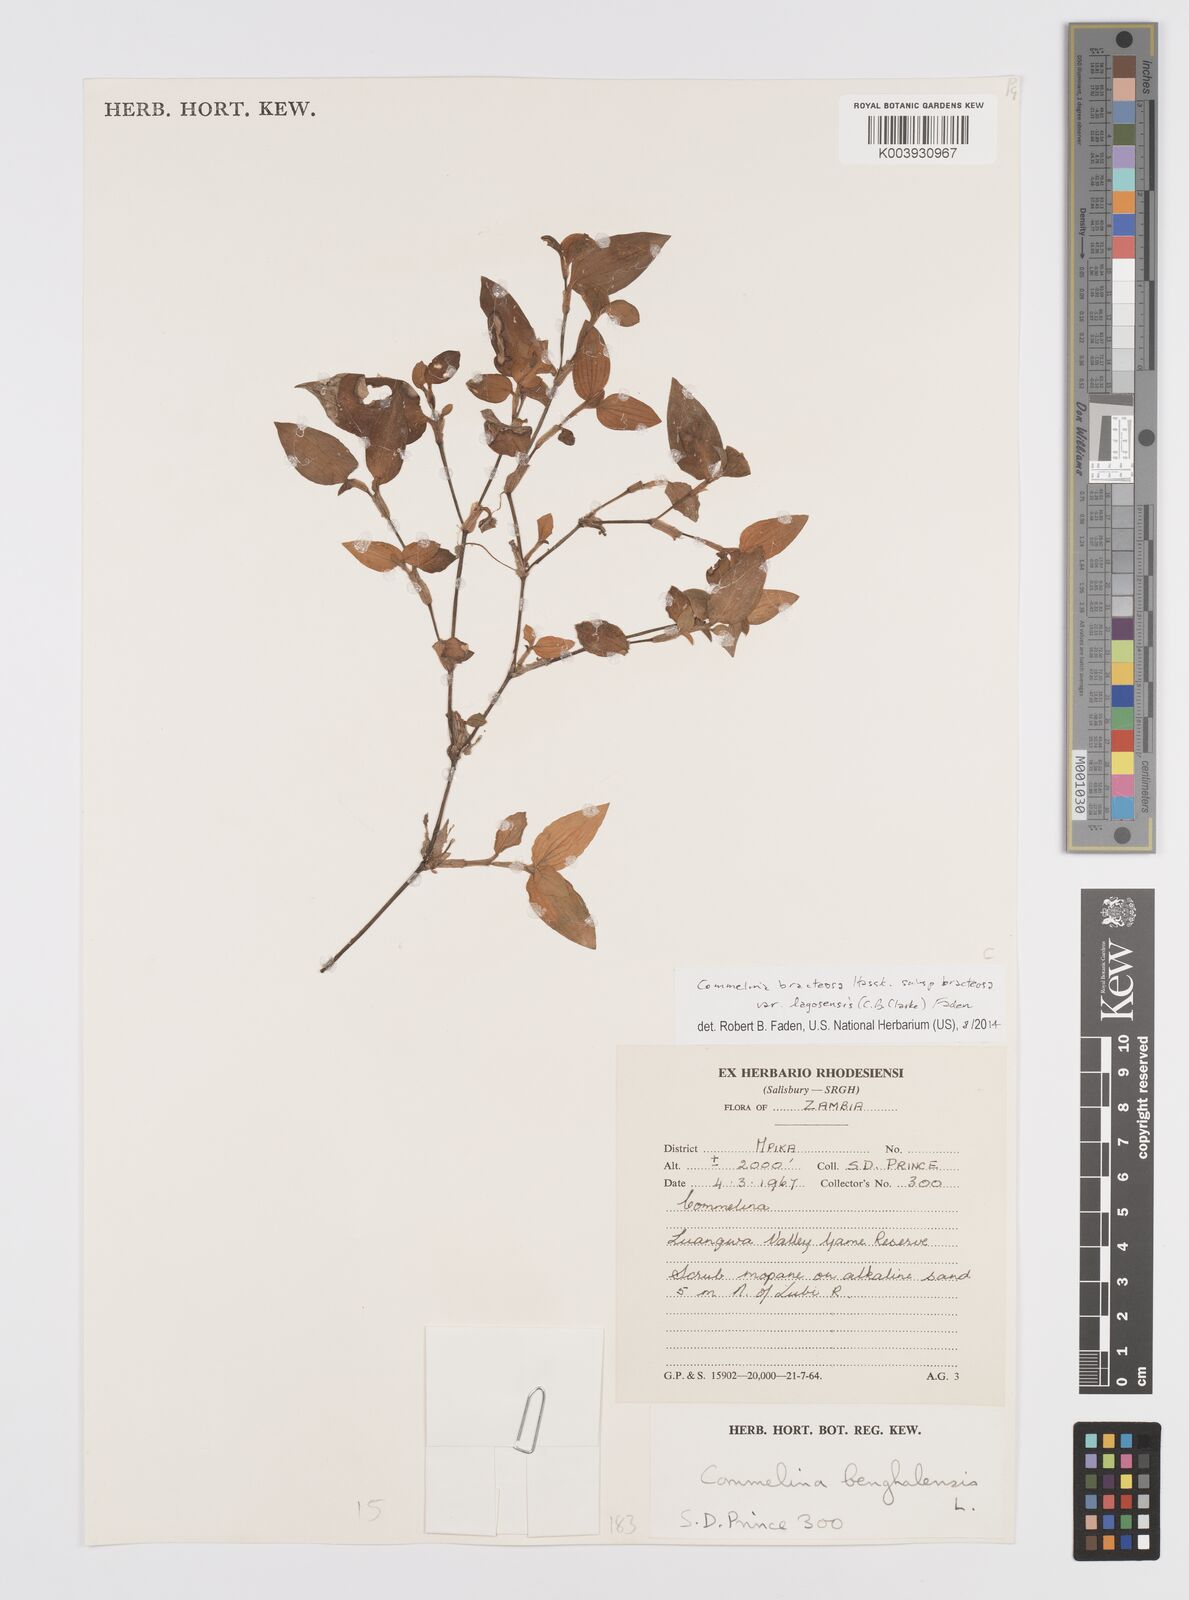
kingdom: Plantae
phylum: Tracheophyta
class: Liliopsida
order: Commelinales
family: Commelinaceae
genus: Commelina
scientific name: Commelina bracteosa
